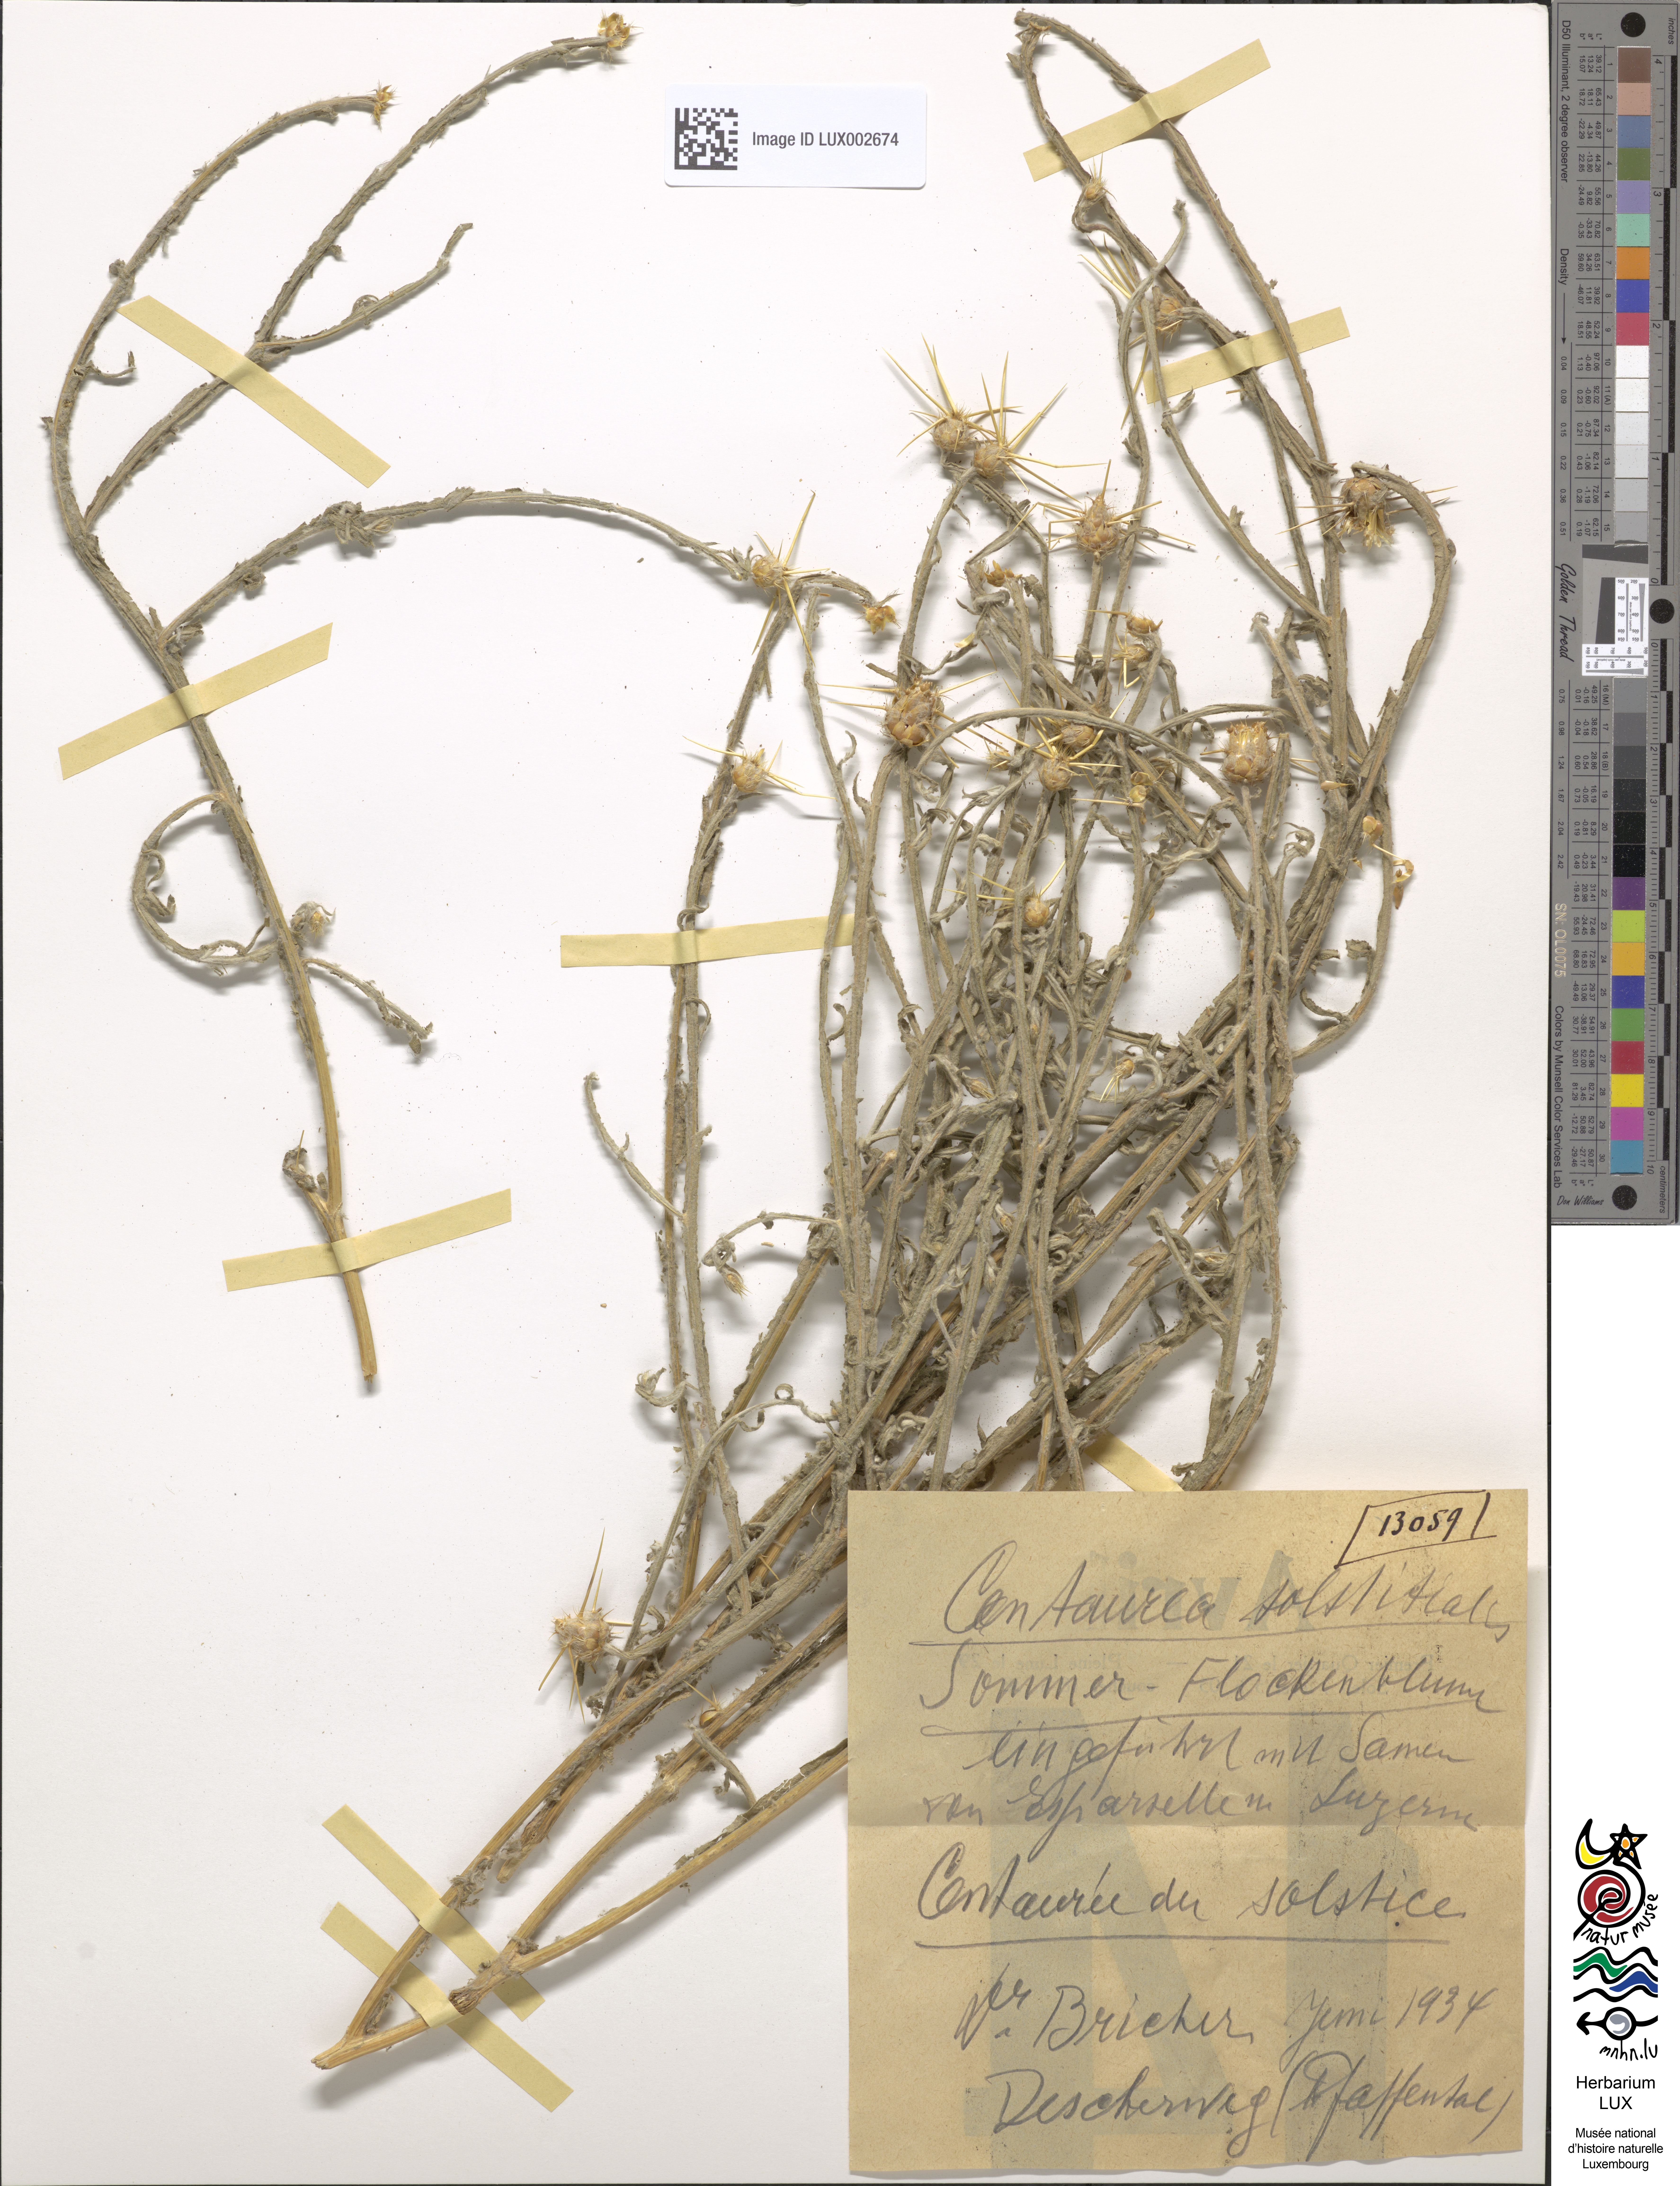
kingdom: Plantae
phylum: Tracheophyta
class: Magnoliopsida
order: Asterales
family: Asteraceae
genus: Centaurea
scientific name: Centaurea solstitialis
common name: Yellow star-thistle
